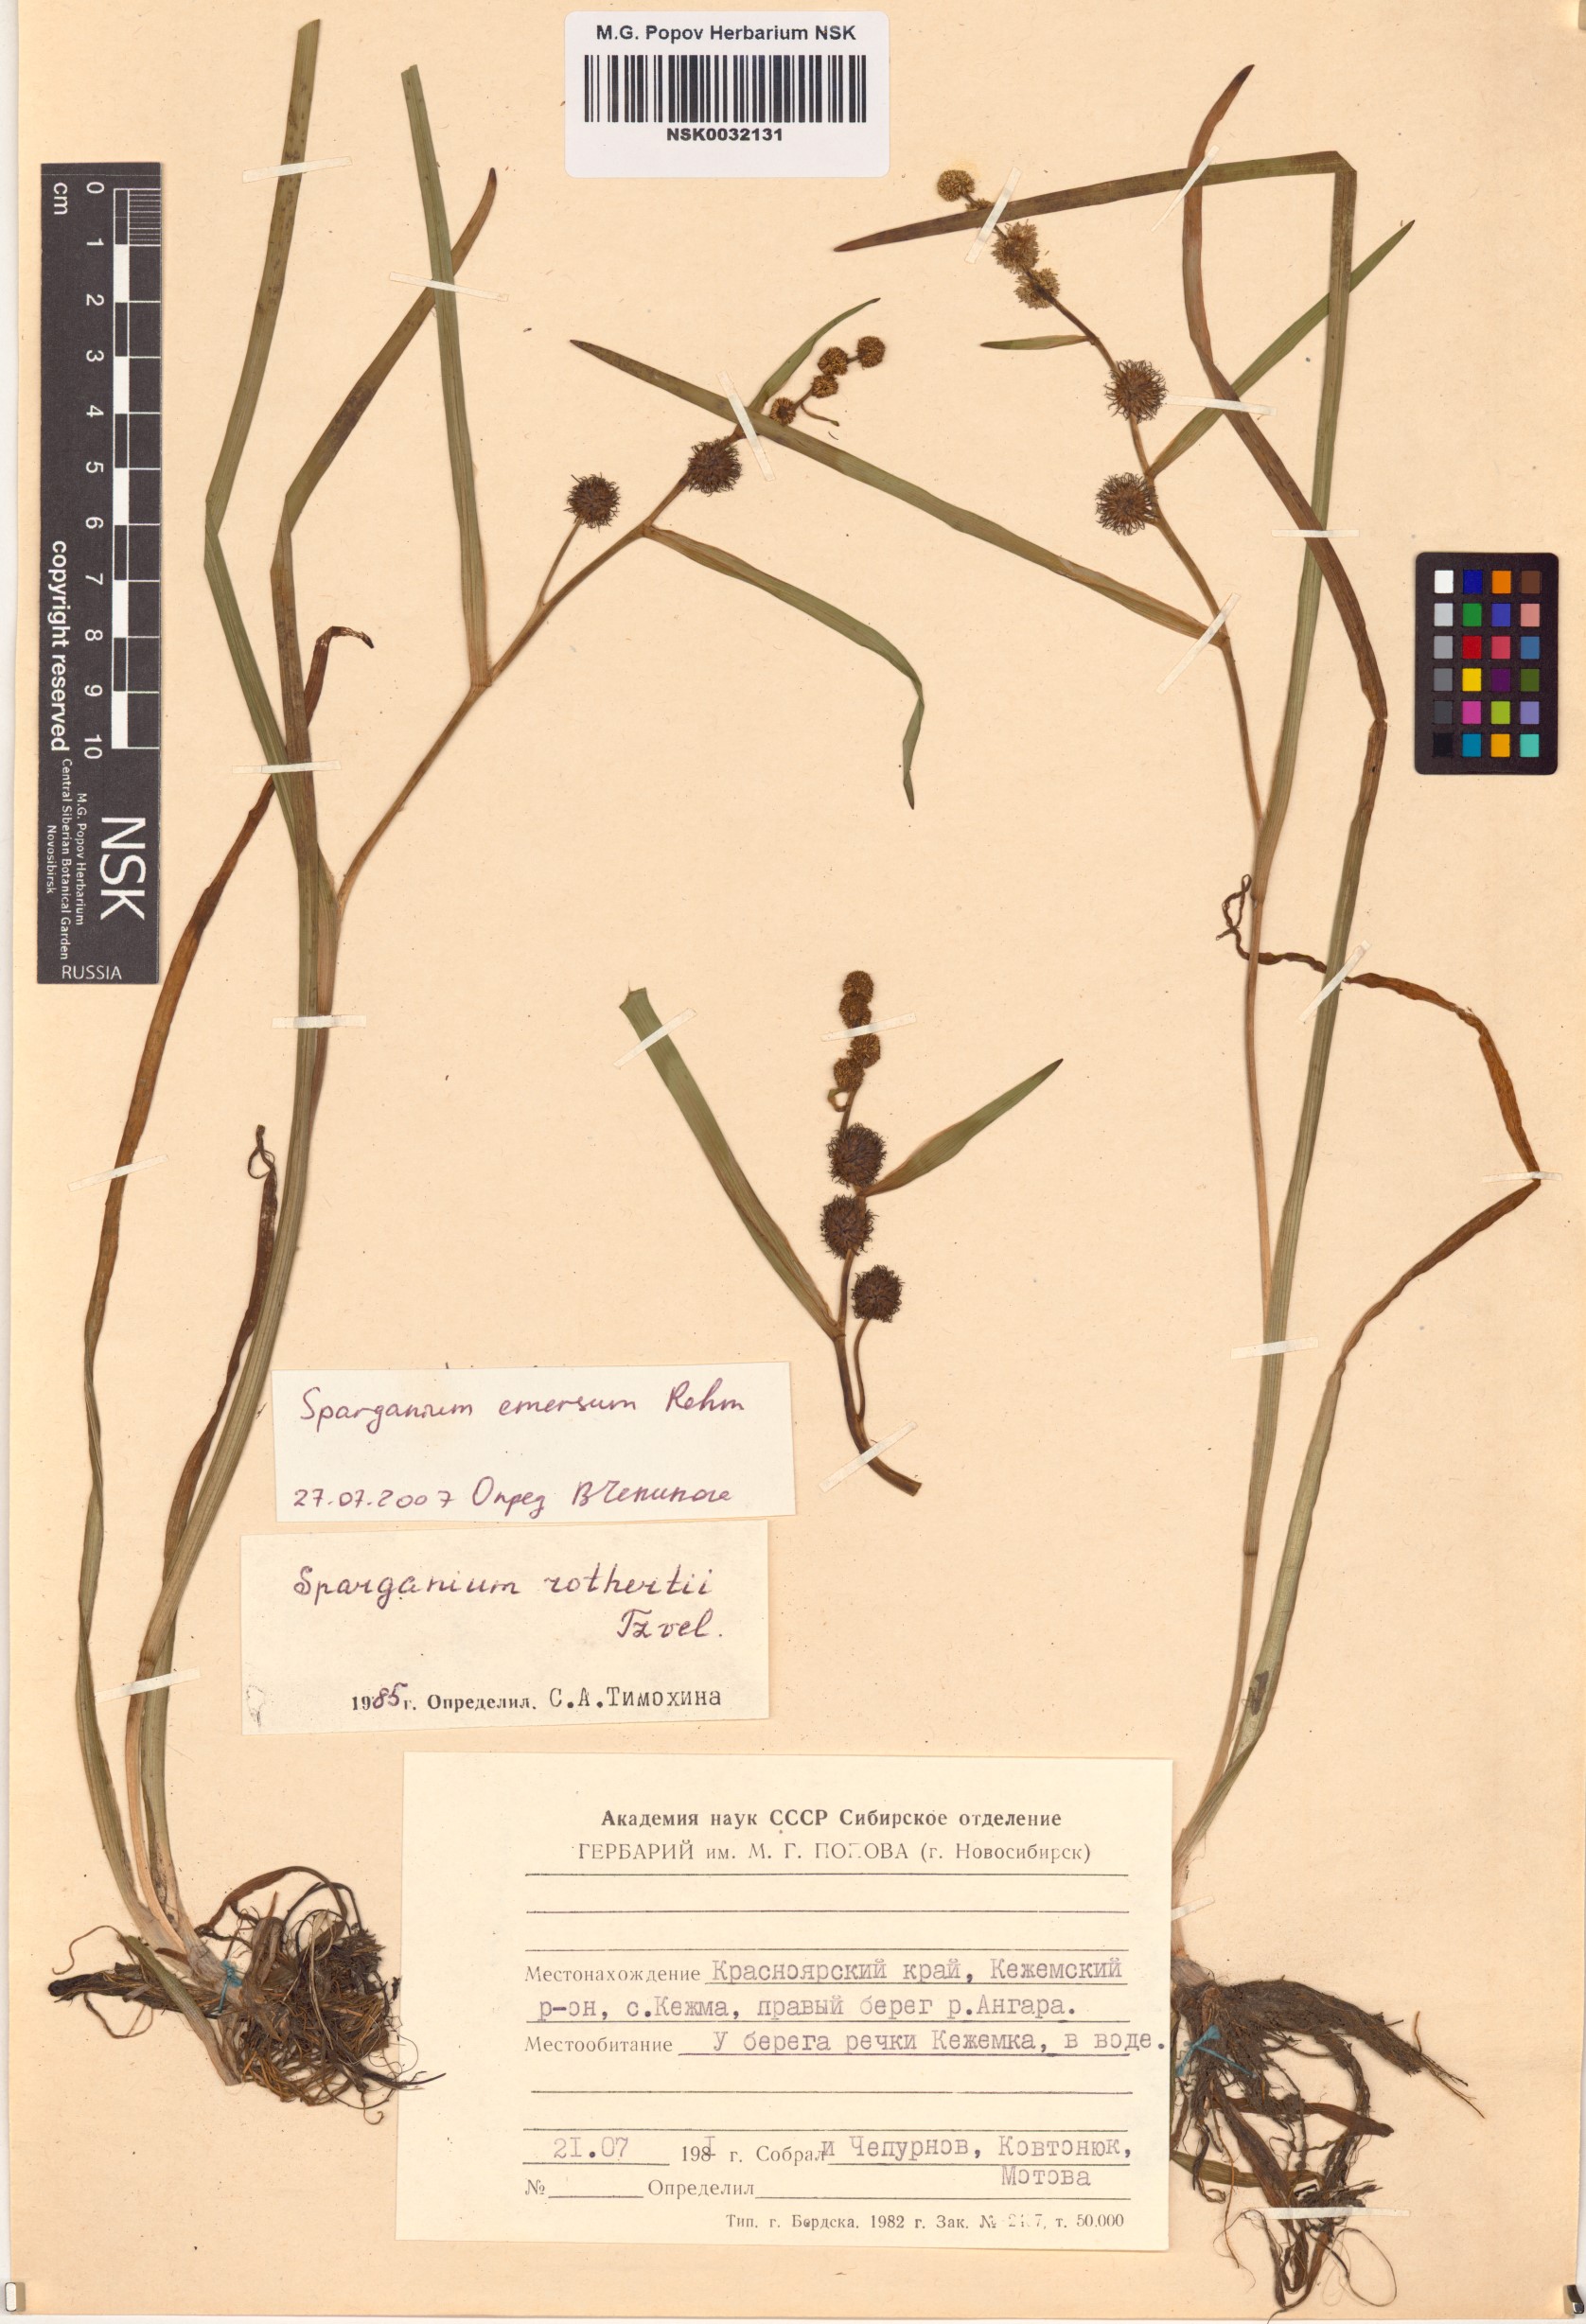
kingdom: Plantae
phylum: Tracheophyta
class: Liliopsida
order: Poales
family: Typhaceae
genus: Sparganium
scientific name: Sparganium emersum
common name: Unbranched bur-reed
